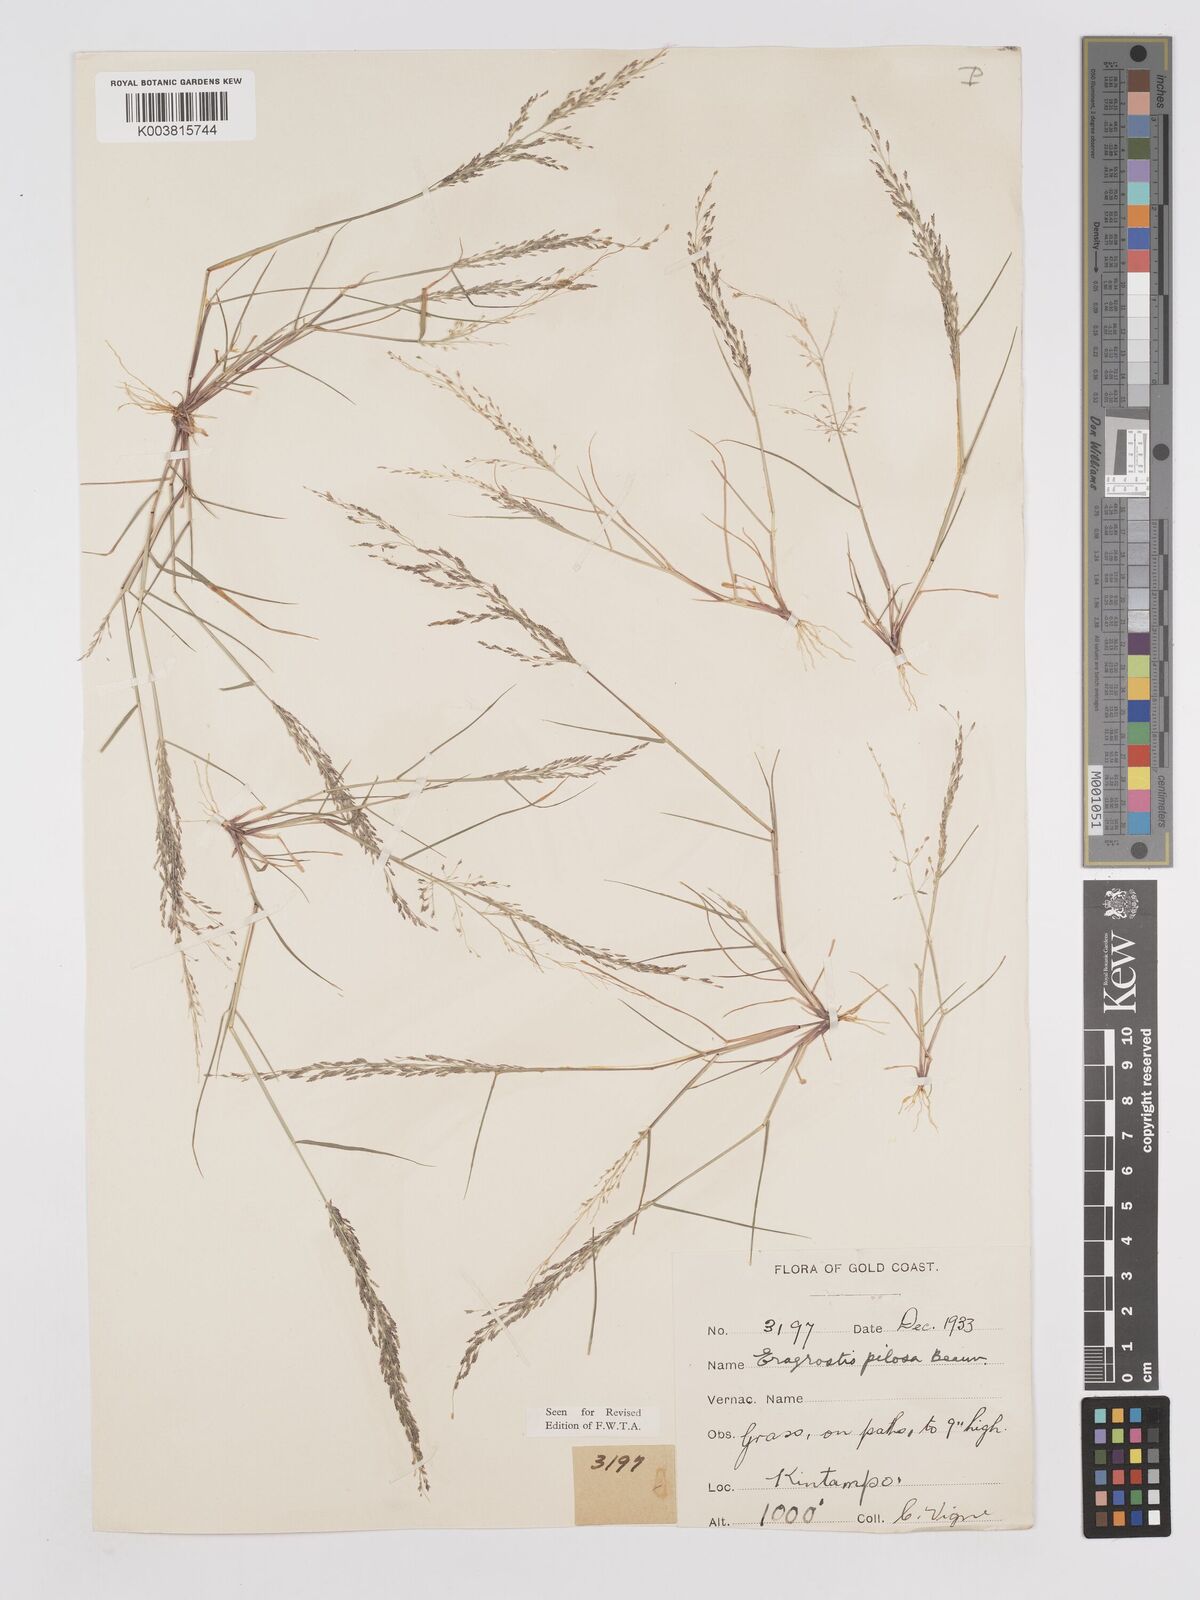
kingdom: Plantae
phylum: Tracheophyta
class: Liliopsida
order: Poales
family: Poaceae
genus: Eragrostis
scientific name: Eragrostis pilosa
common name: Indian lovegrass
